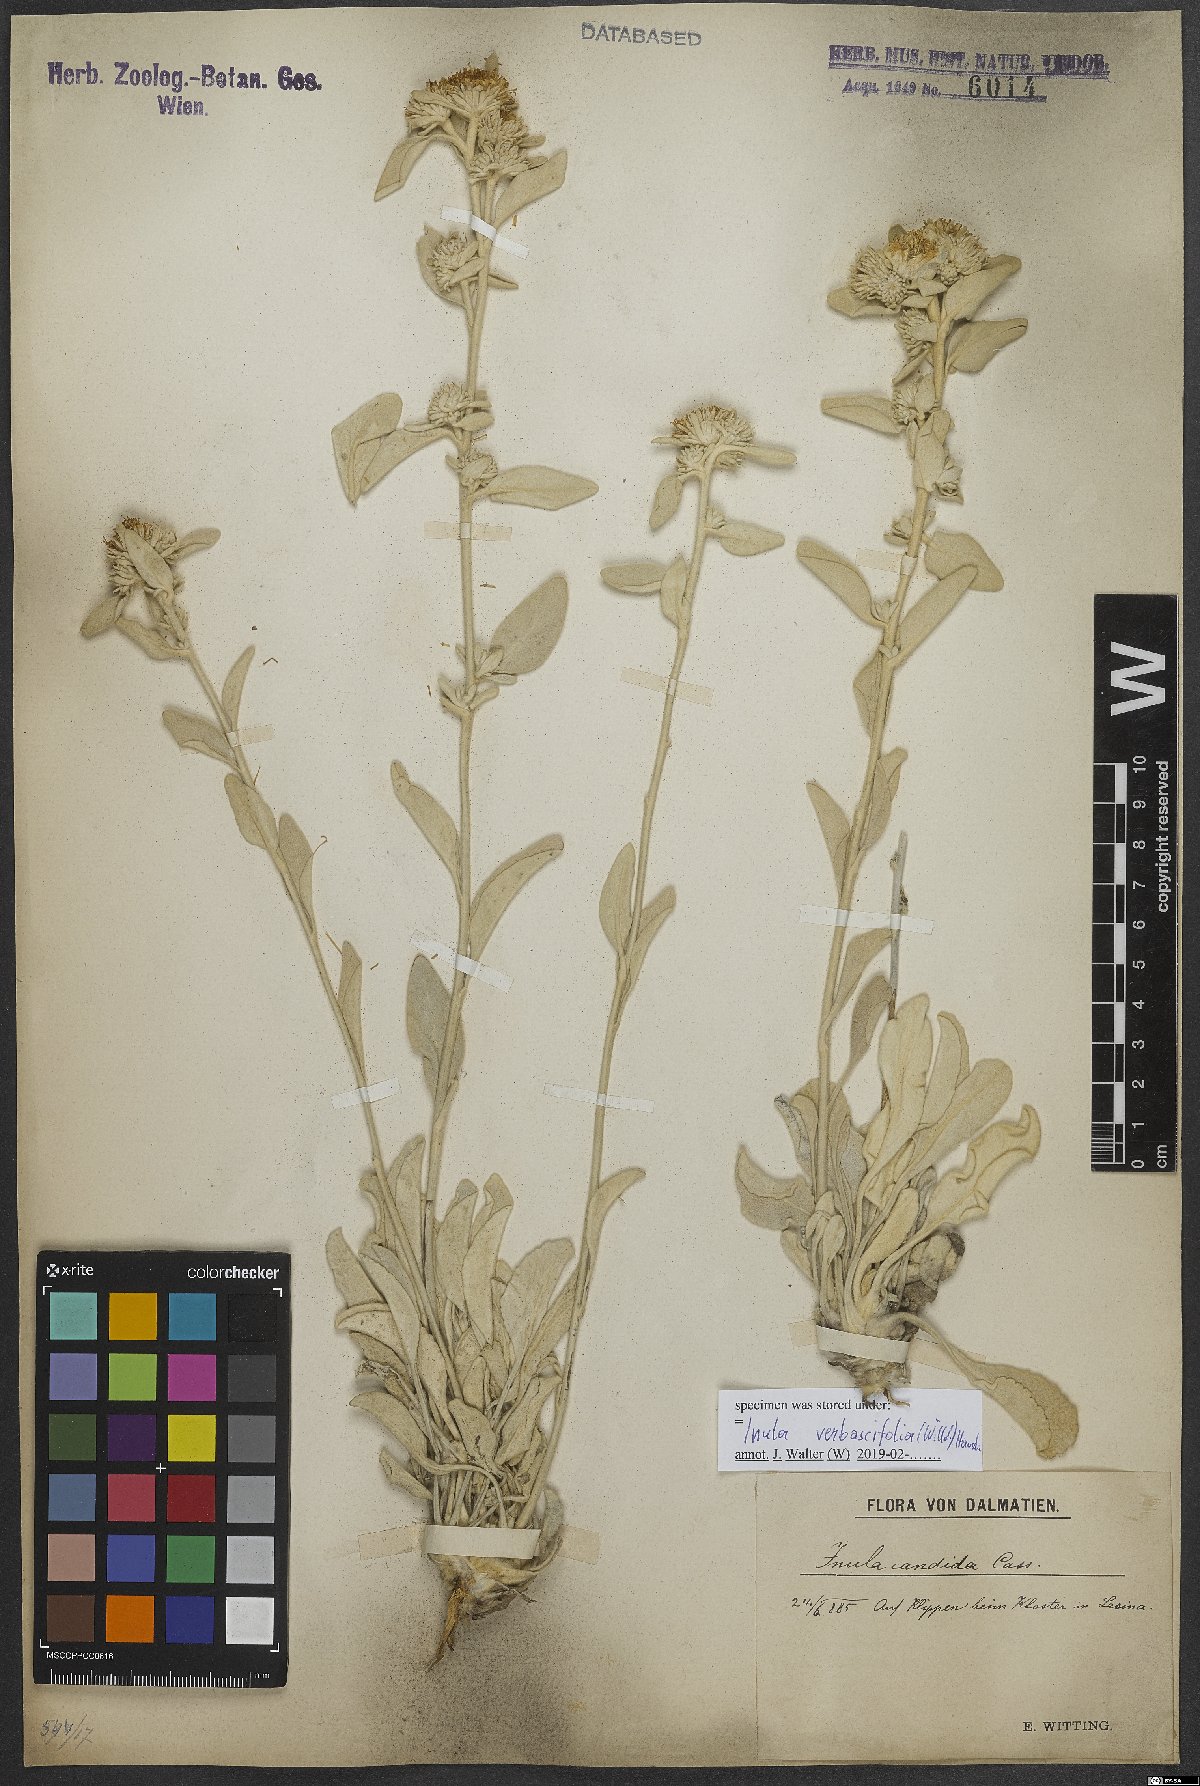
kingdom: Plantae
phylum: Tracheophyta
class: Magnoliopsida
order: Asterales
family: Asteraceae
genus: Pentanema
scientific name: Pentanema verbascifolium
